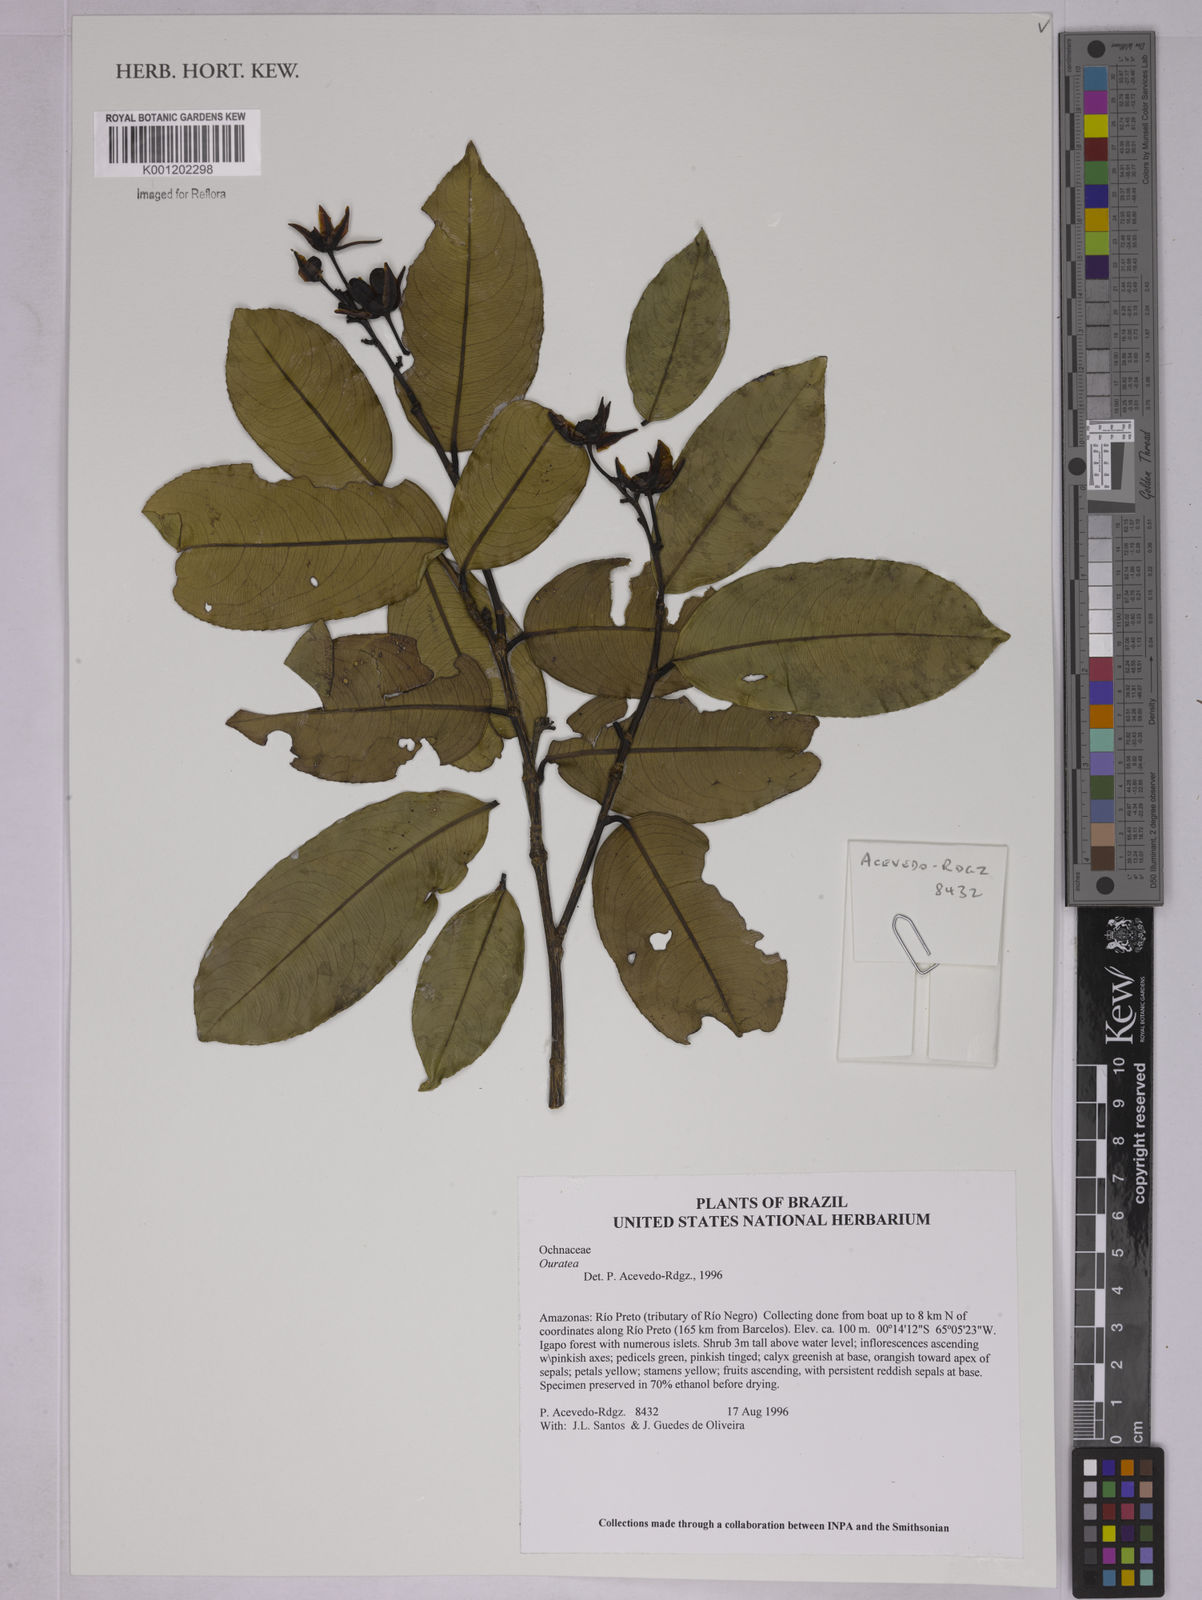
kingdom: Plantae
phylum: Tracheophyta
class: Magnoliopsida
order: Malpighiales
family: Ochnaceae
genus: Ouratea
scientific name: Ouratea
